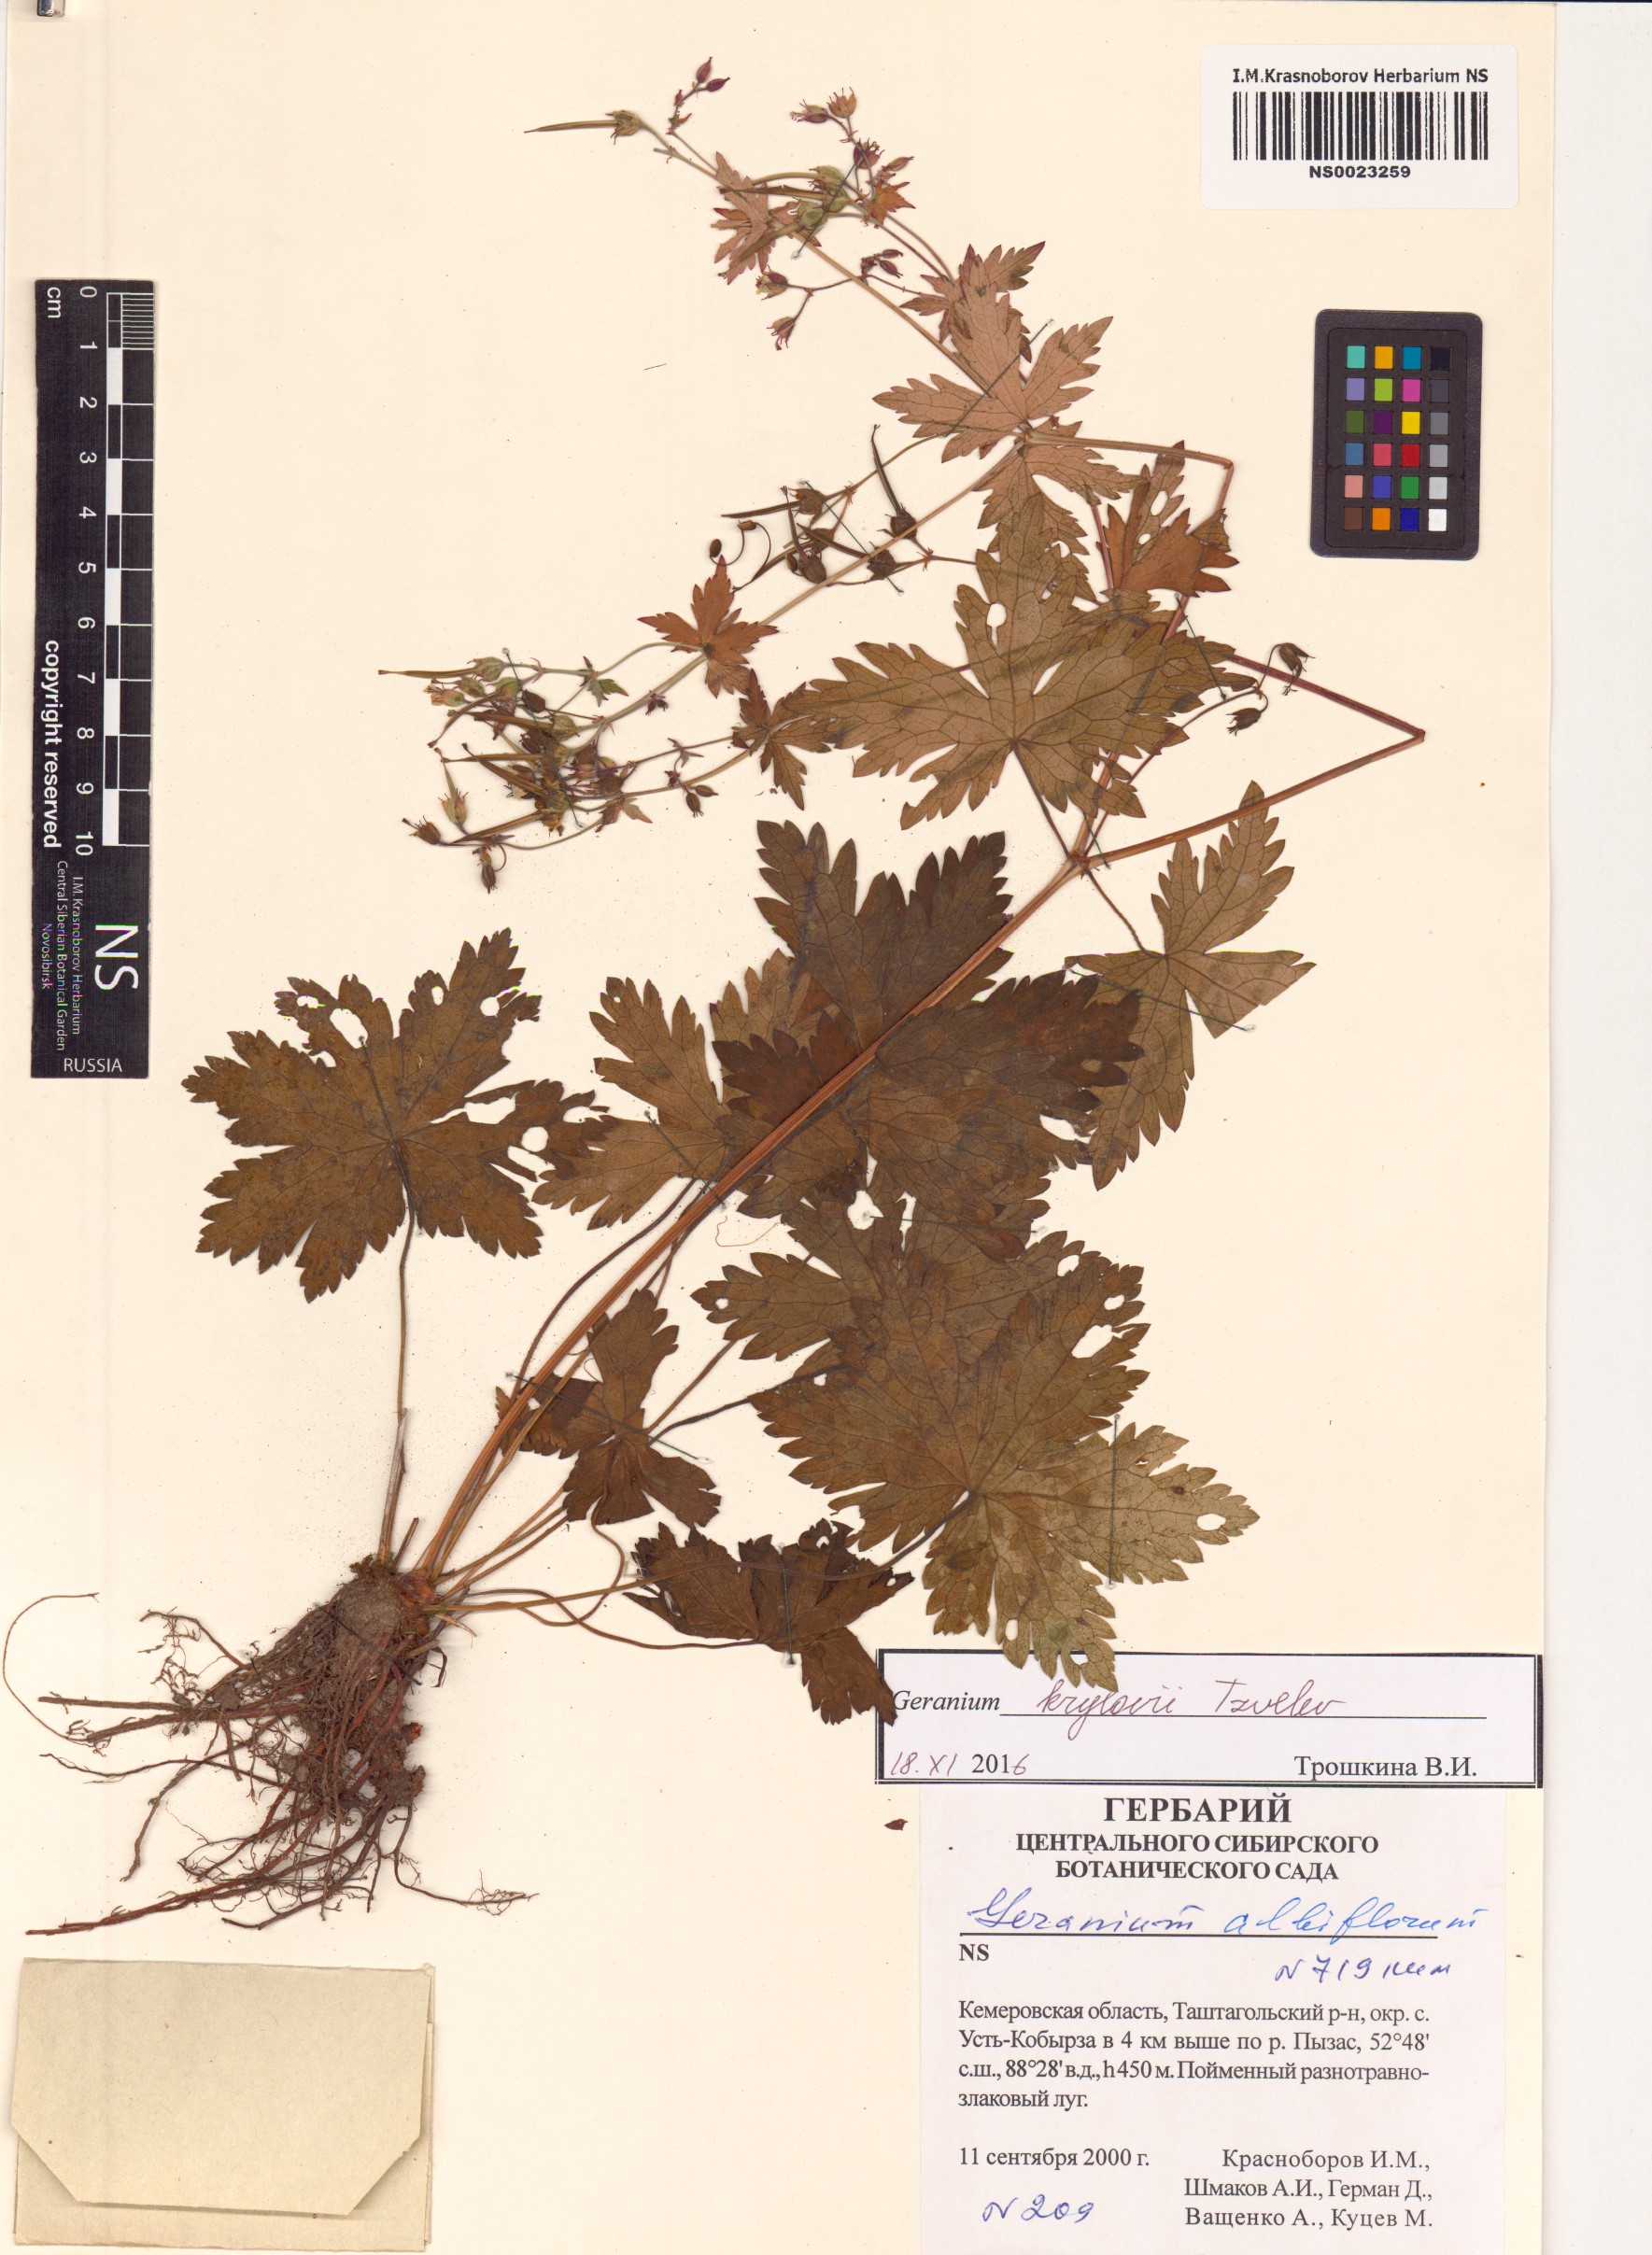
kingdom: Plantae
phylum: Tracheophyta
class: Magnoliopsida
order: Geraniales
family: Geraniaceae
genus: Geranium
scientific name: Geranium sylvaticum
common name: Wood crane's-bill
